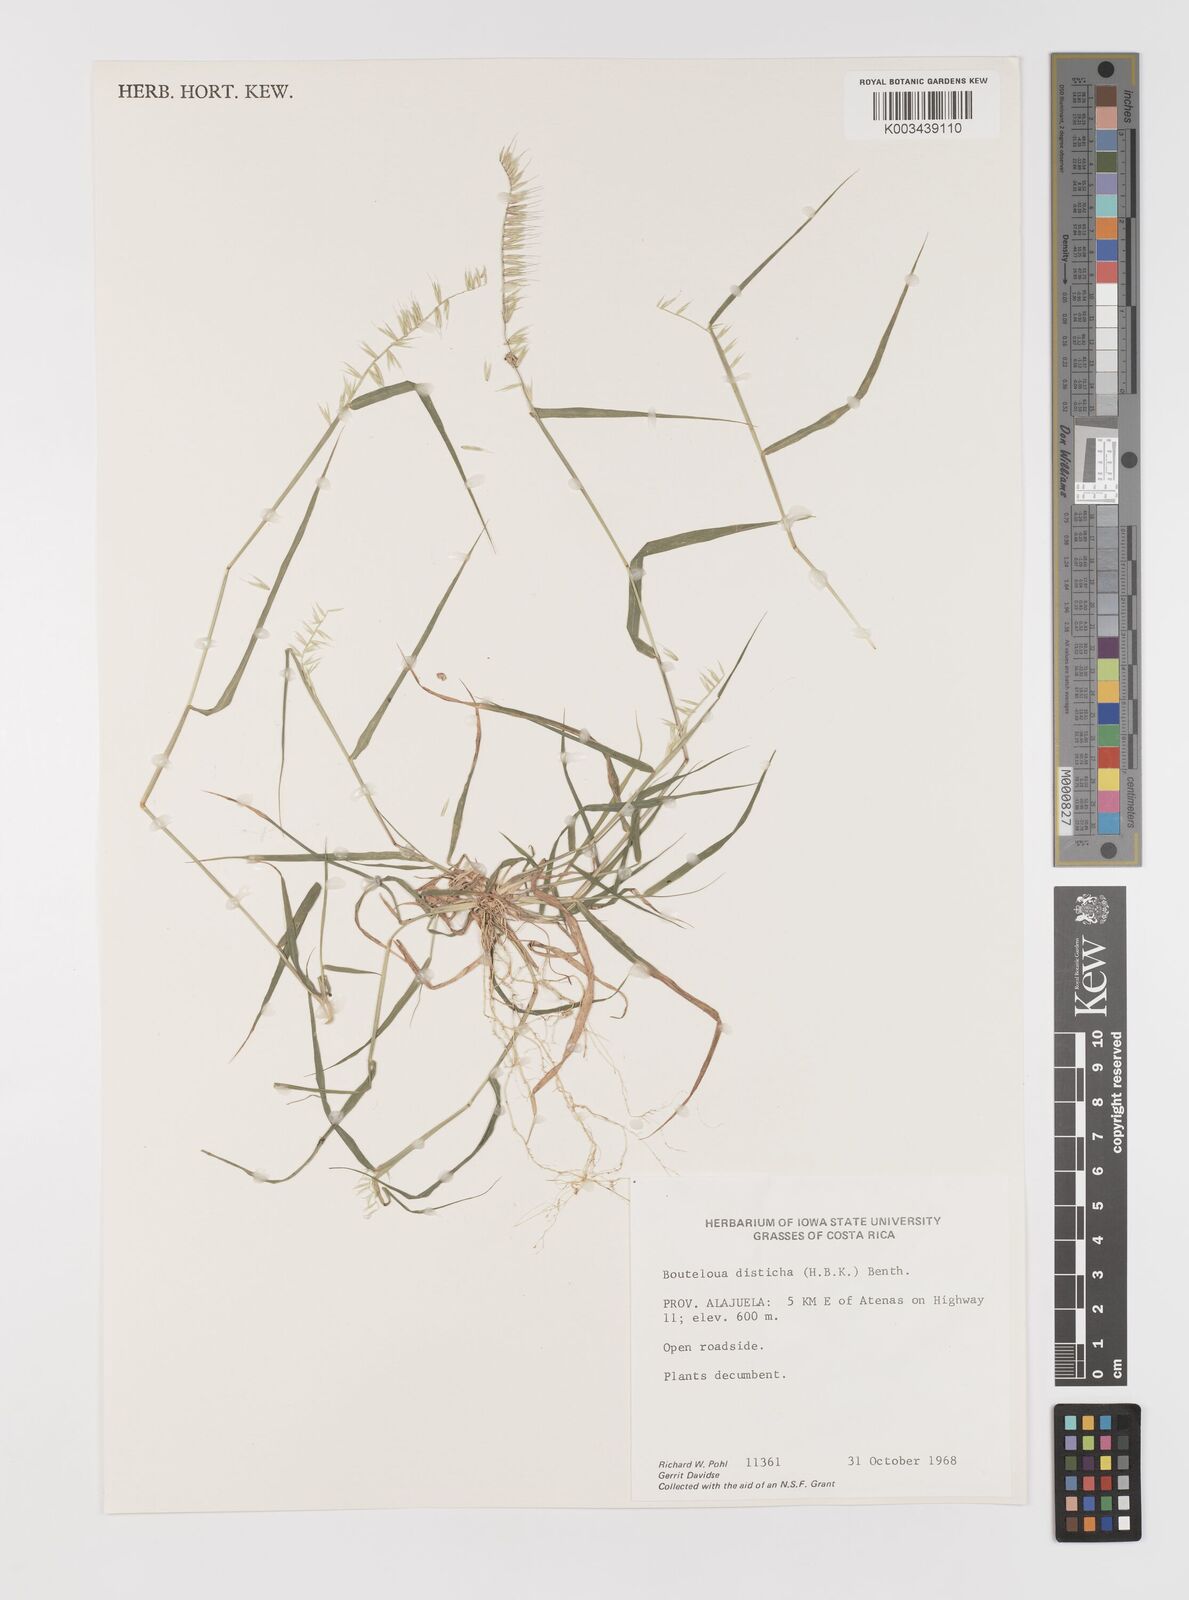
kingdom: Plantae
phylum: Tracheophyta
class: Liliopsida
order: Poales
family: Poaceae
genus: Bouteloua
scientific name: Bouteloua disticha
